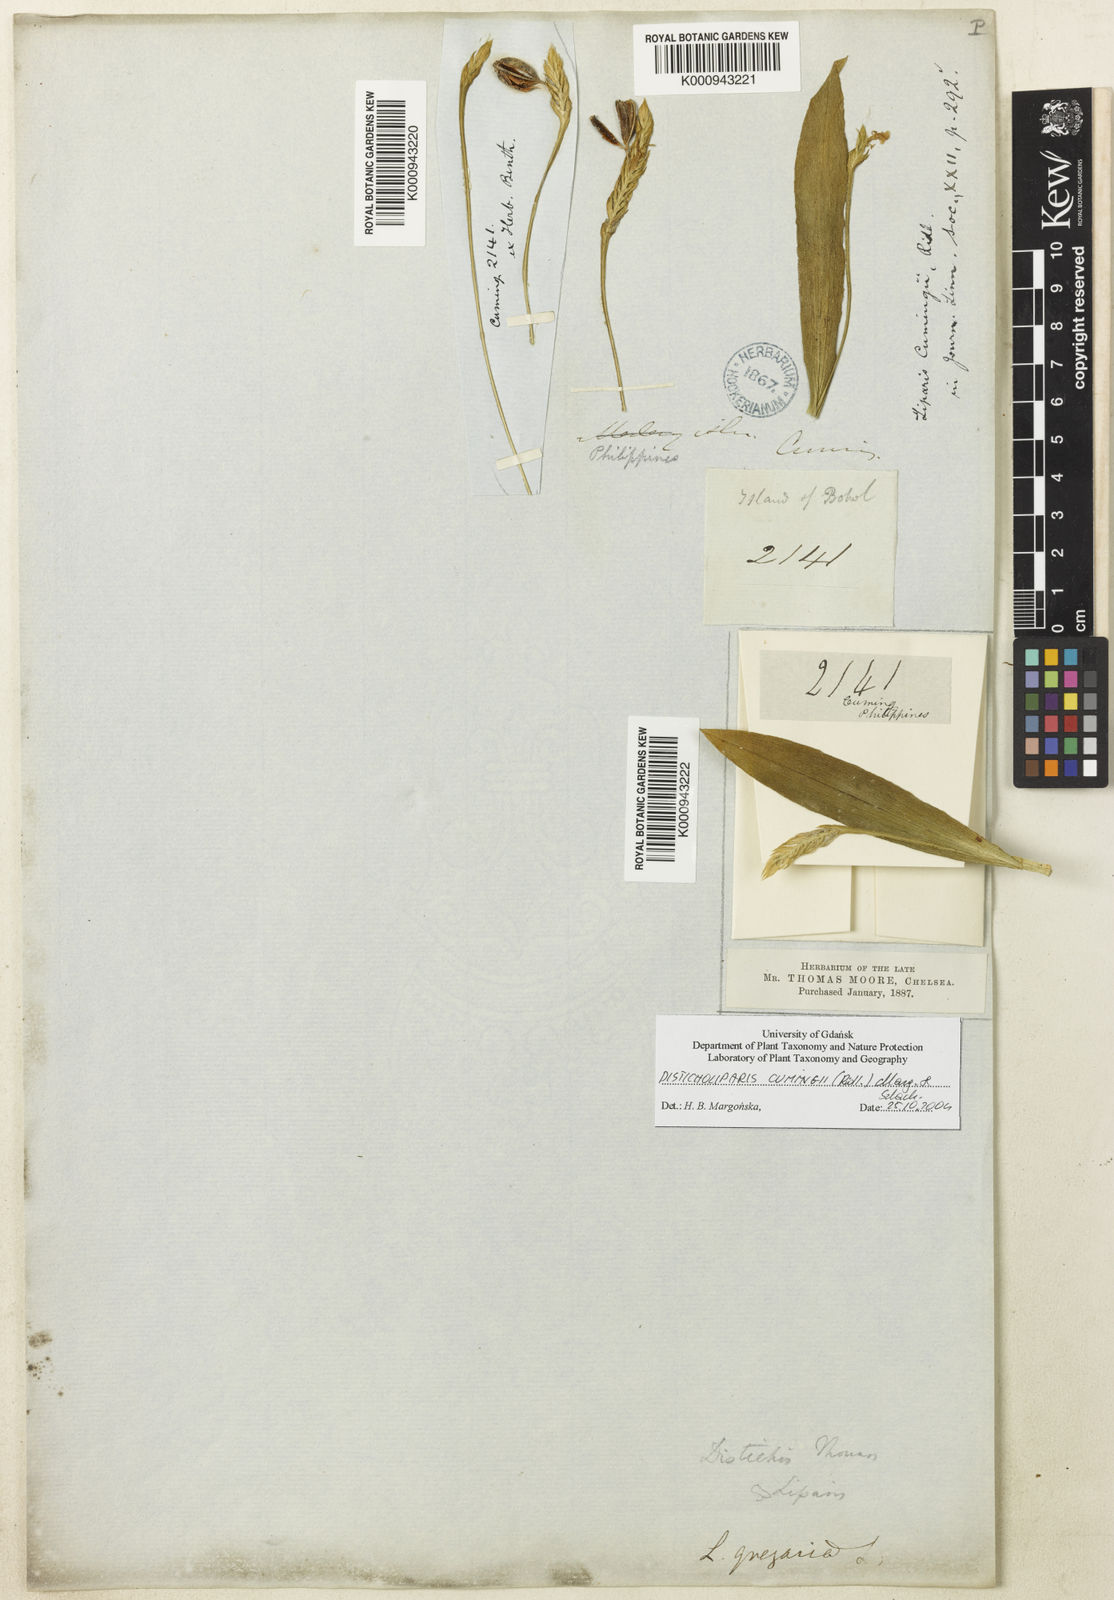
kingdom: Plantae
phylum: Tracheophyta
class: Liliopsida
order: Asparagales
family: Orchidaceae
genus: Stichorkis
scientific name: Stichorkis cumingii
